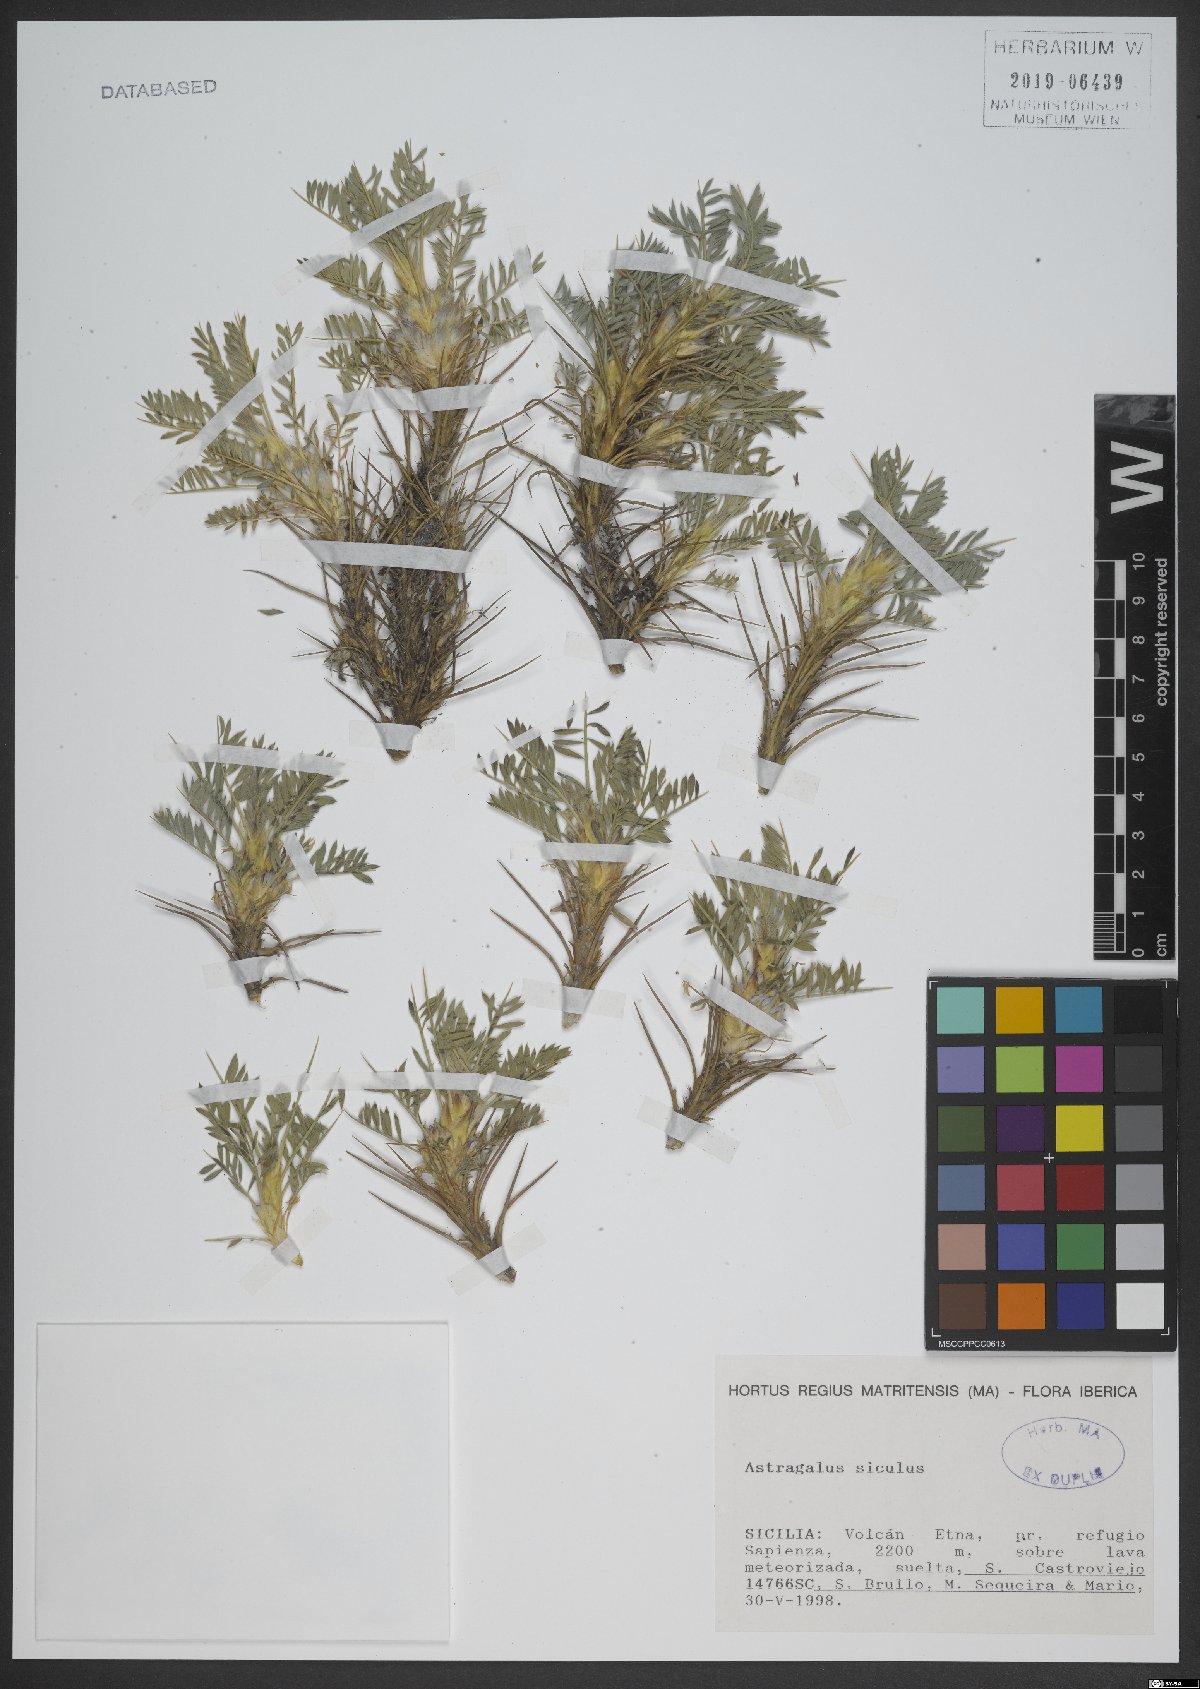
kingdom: Plantae
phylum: Tracheophyta
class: Magnoliopsida
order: Fabales
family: Fabaceae
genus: Astragalus
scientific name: Astragalus siculus
